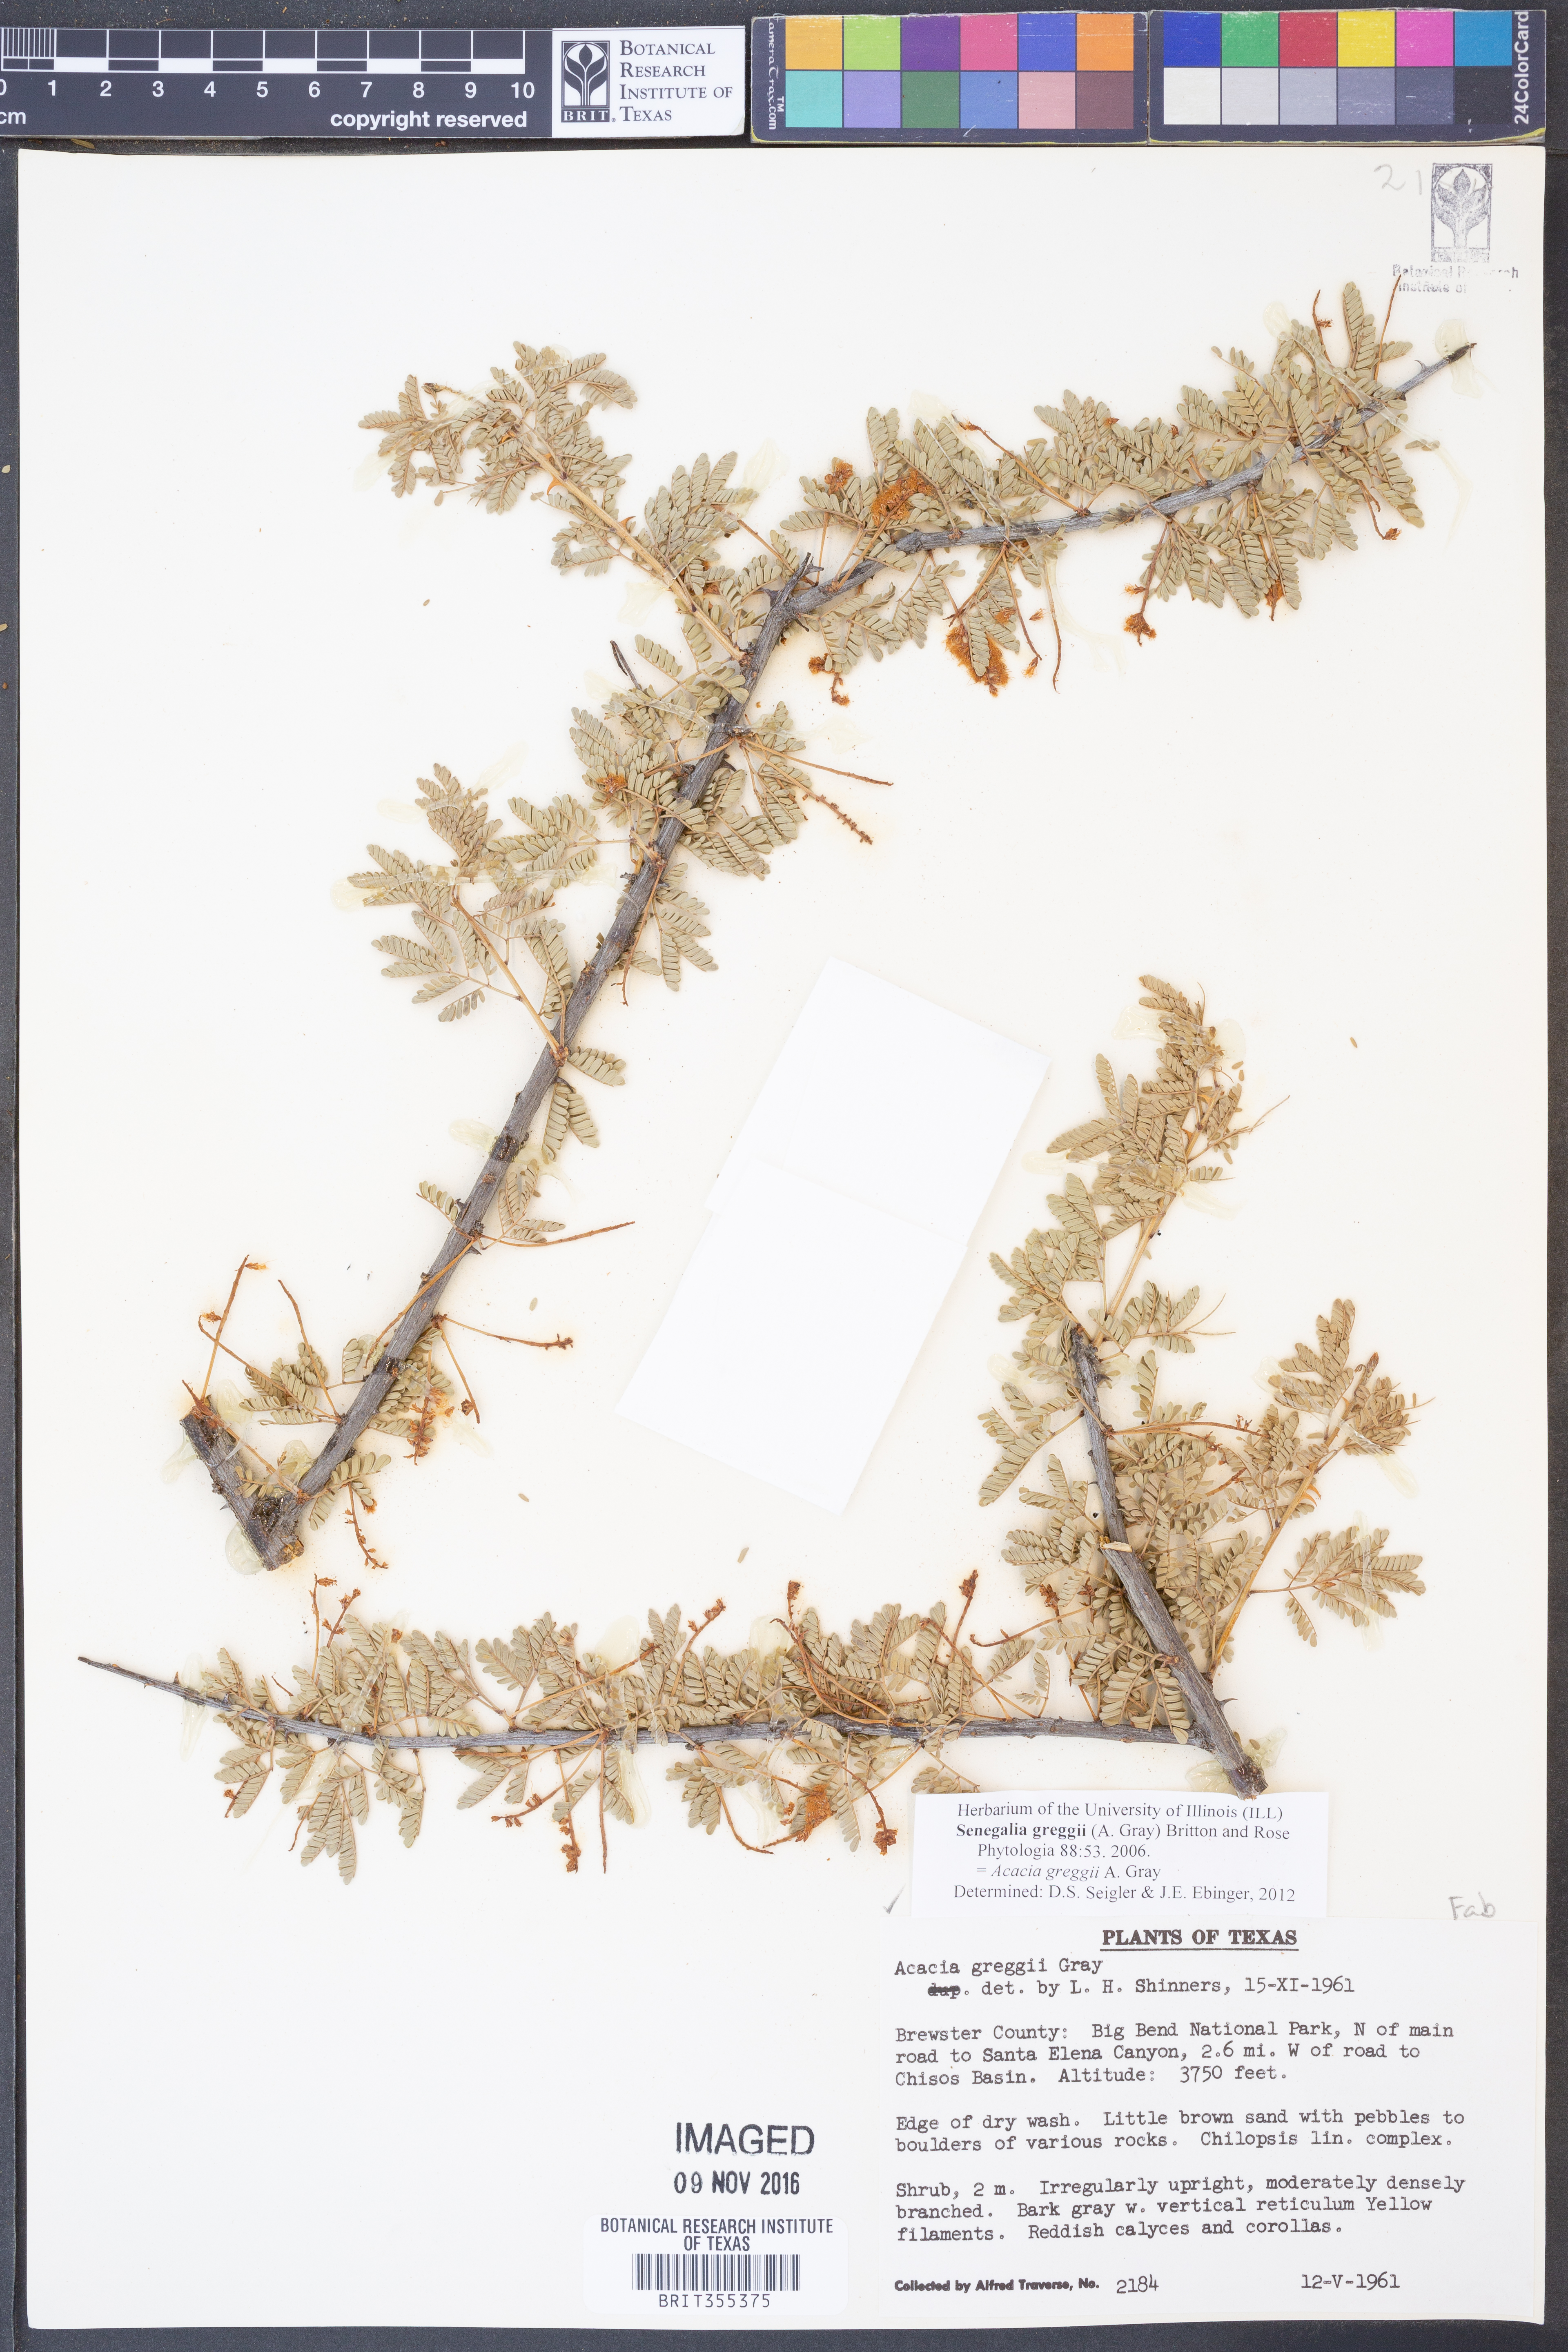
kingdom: Plantae
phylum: Tracheophyta
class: Magnoliopsida
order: Fabales
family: Fabaceae
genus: Senegalia
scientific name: Senegalia greggii
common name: Texas-mimosa
